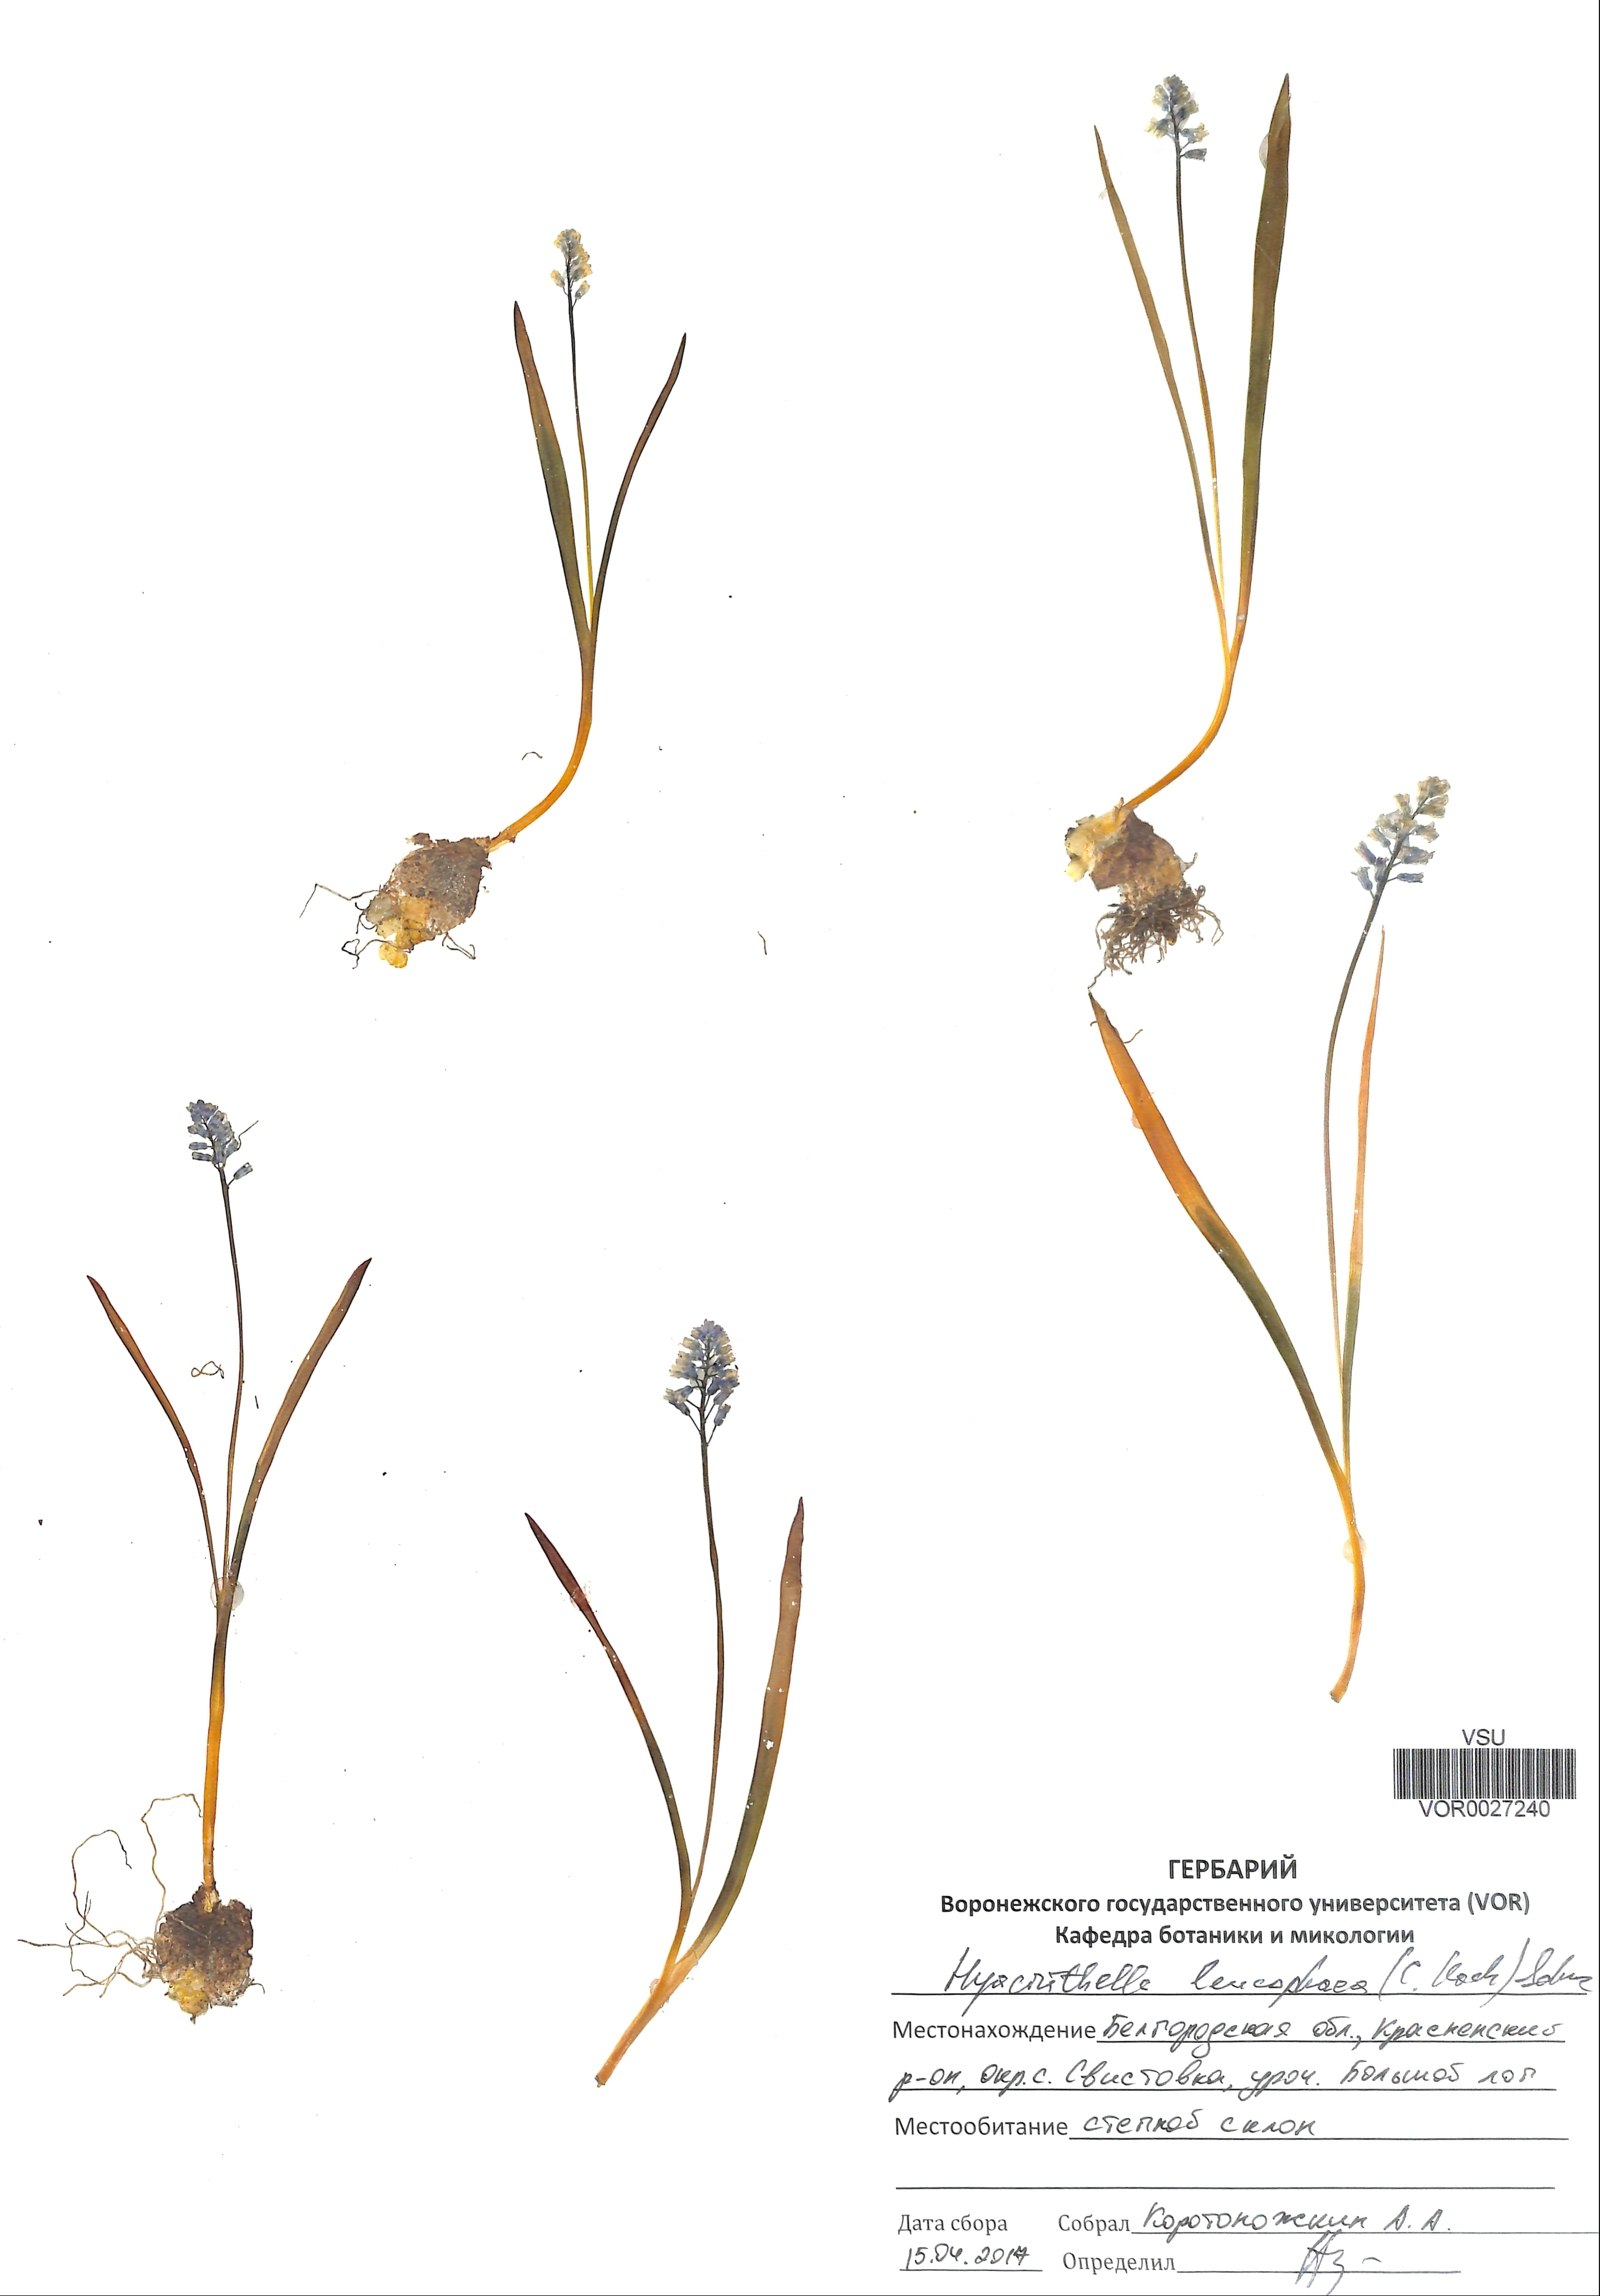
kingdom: Plantae
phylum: Tracheophyta
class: Liliopsida
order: Asparagales
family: Asparagaceae
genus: Hyacinthella
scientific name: Hyacinthella leucophaea
